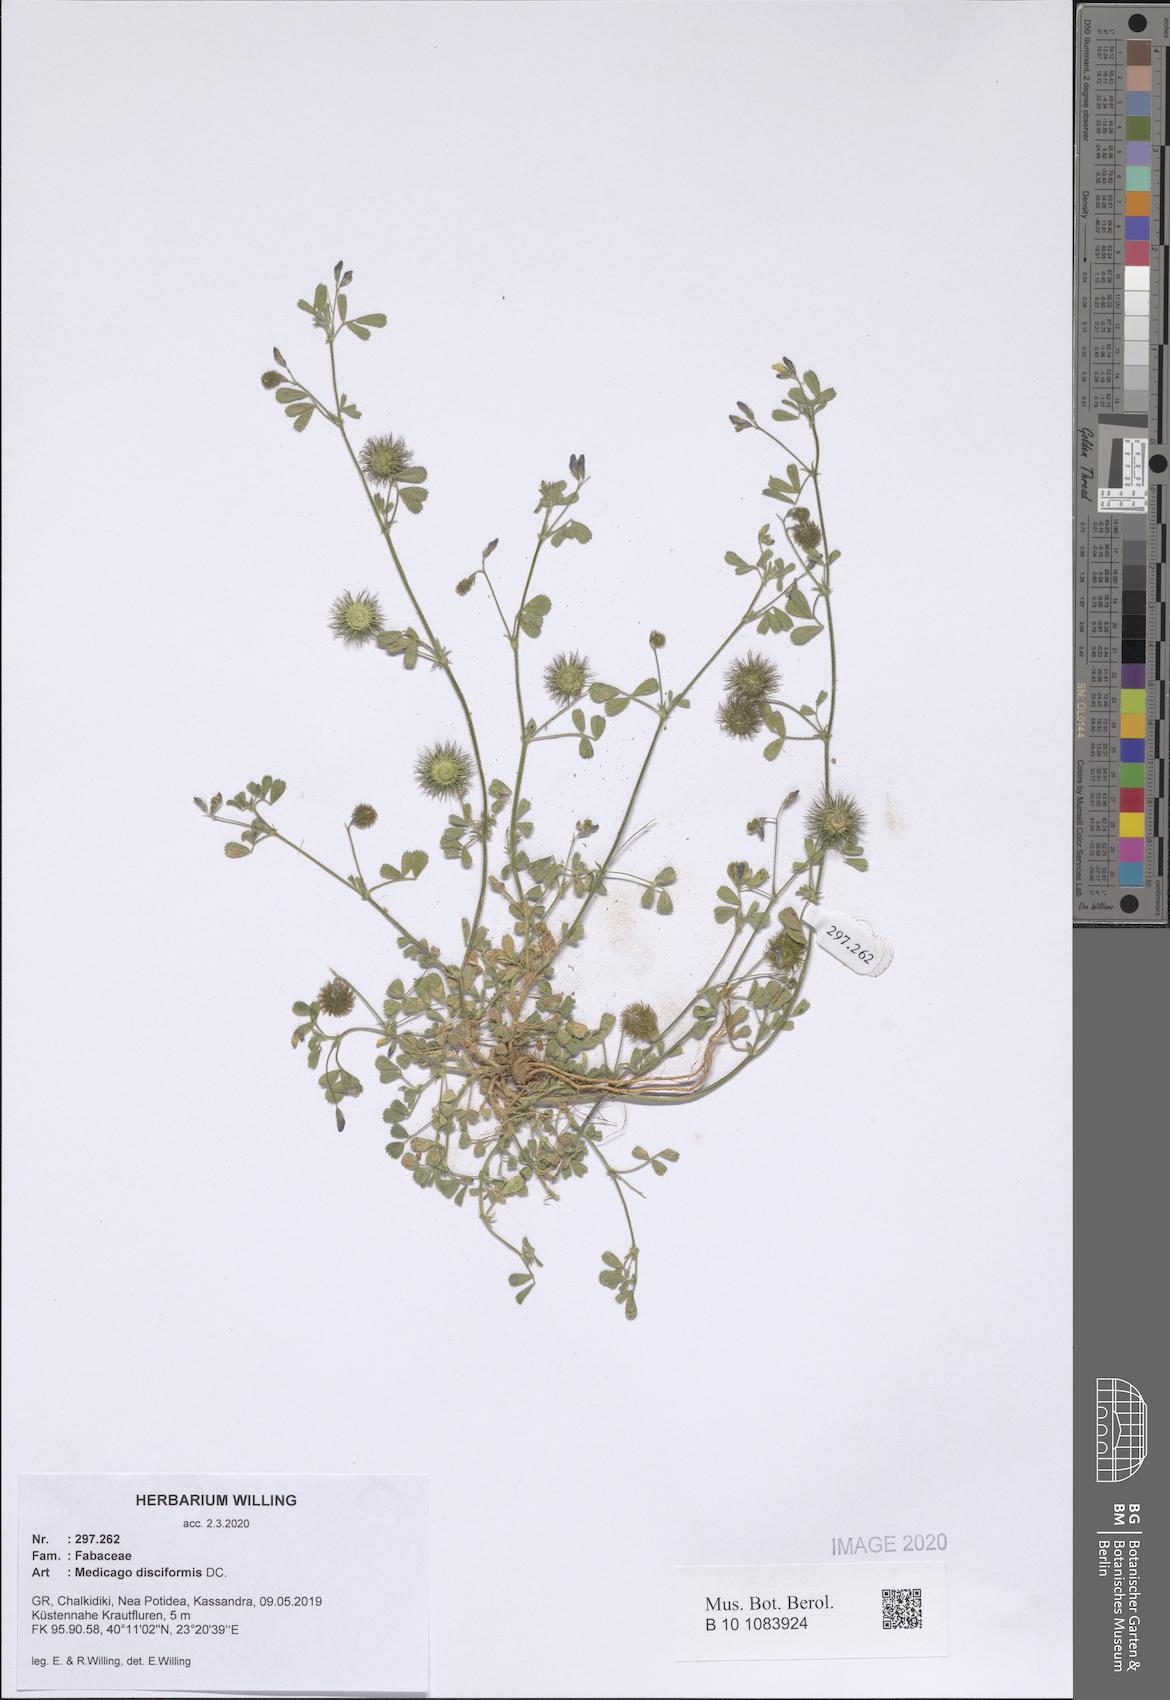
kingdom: Plantae
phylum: Tracheophyta
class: Magnoliopsida
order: Fabales
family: Fabaceae
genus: Medicago
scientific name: Medicago disciformis
